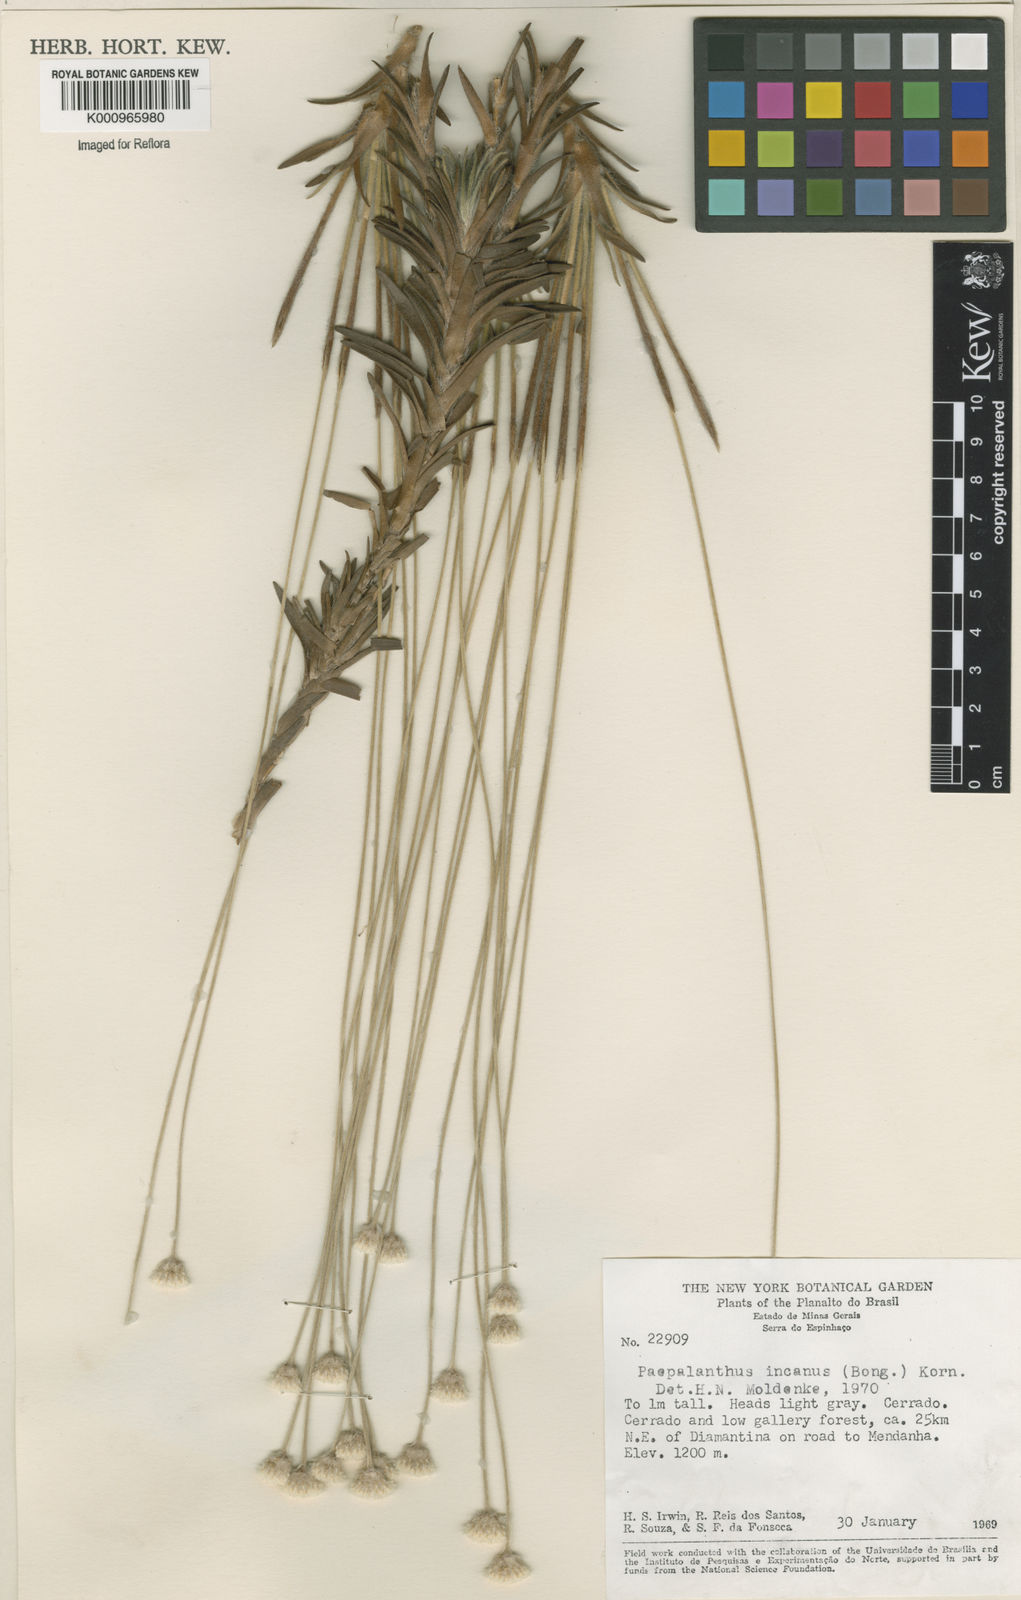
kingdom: Plantae
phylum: Tracheophyta
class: Liliopsida
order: Poales
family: Eriocaulaceae
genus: Paepalanthus
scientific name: Paepalanthus
